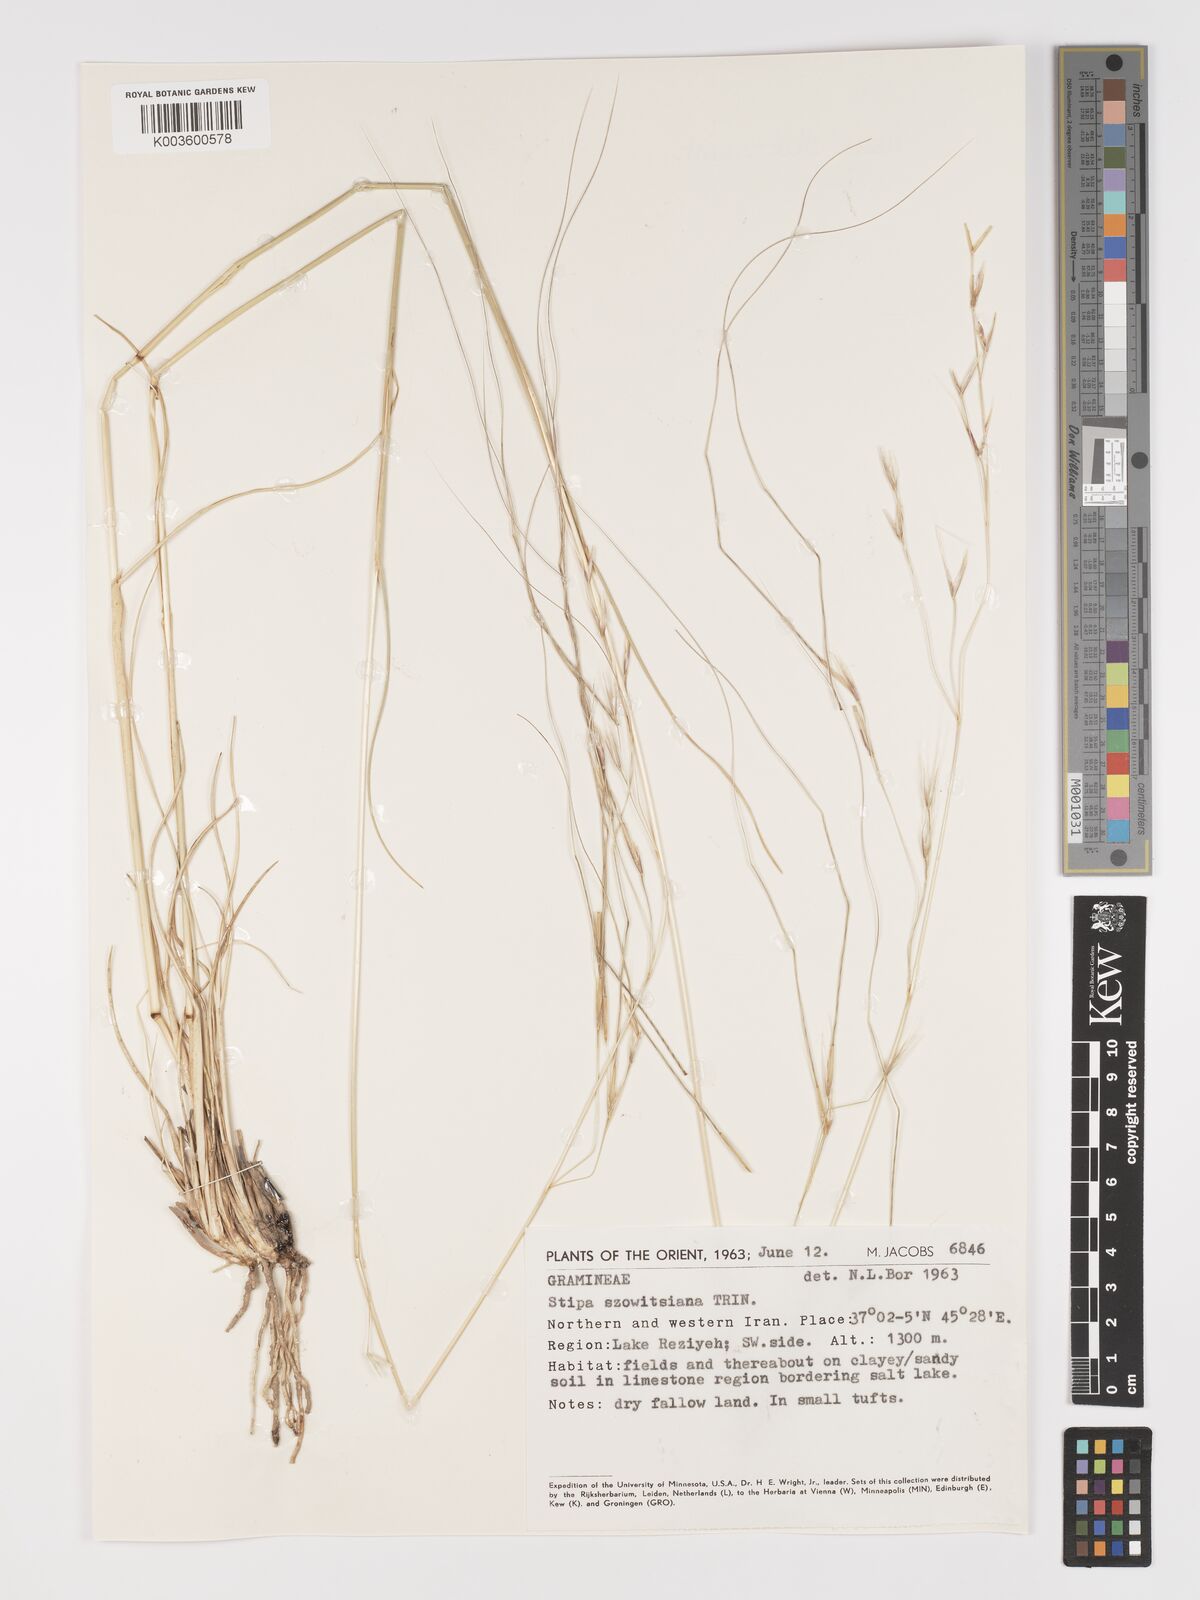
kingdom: Plantae
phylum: Tracheophyta
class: Liliopsida
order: Poales
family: Poaceae
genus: Stipa
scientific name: Stipa barbata
